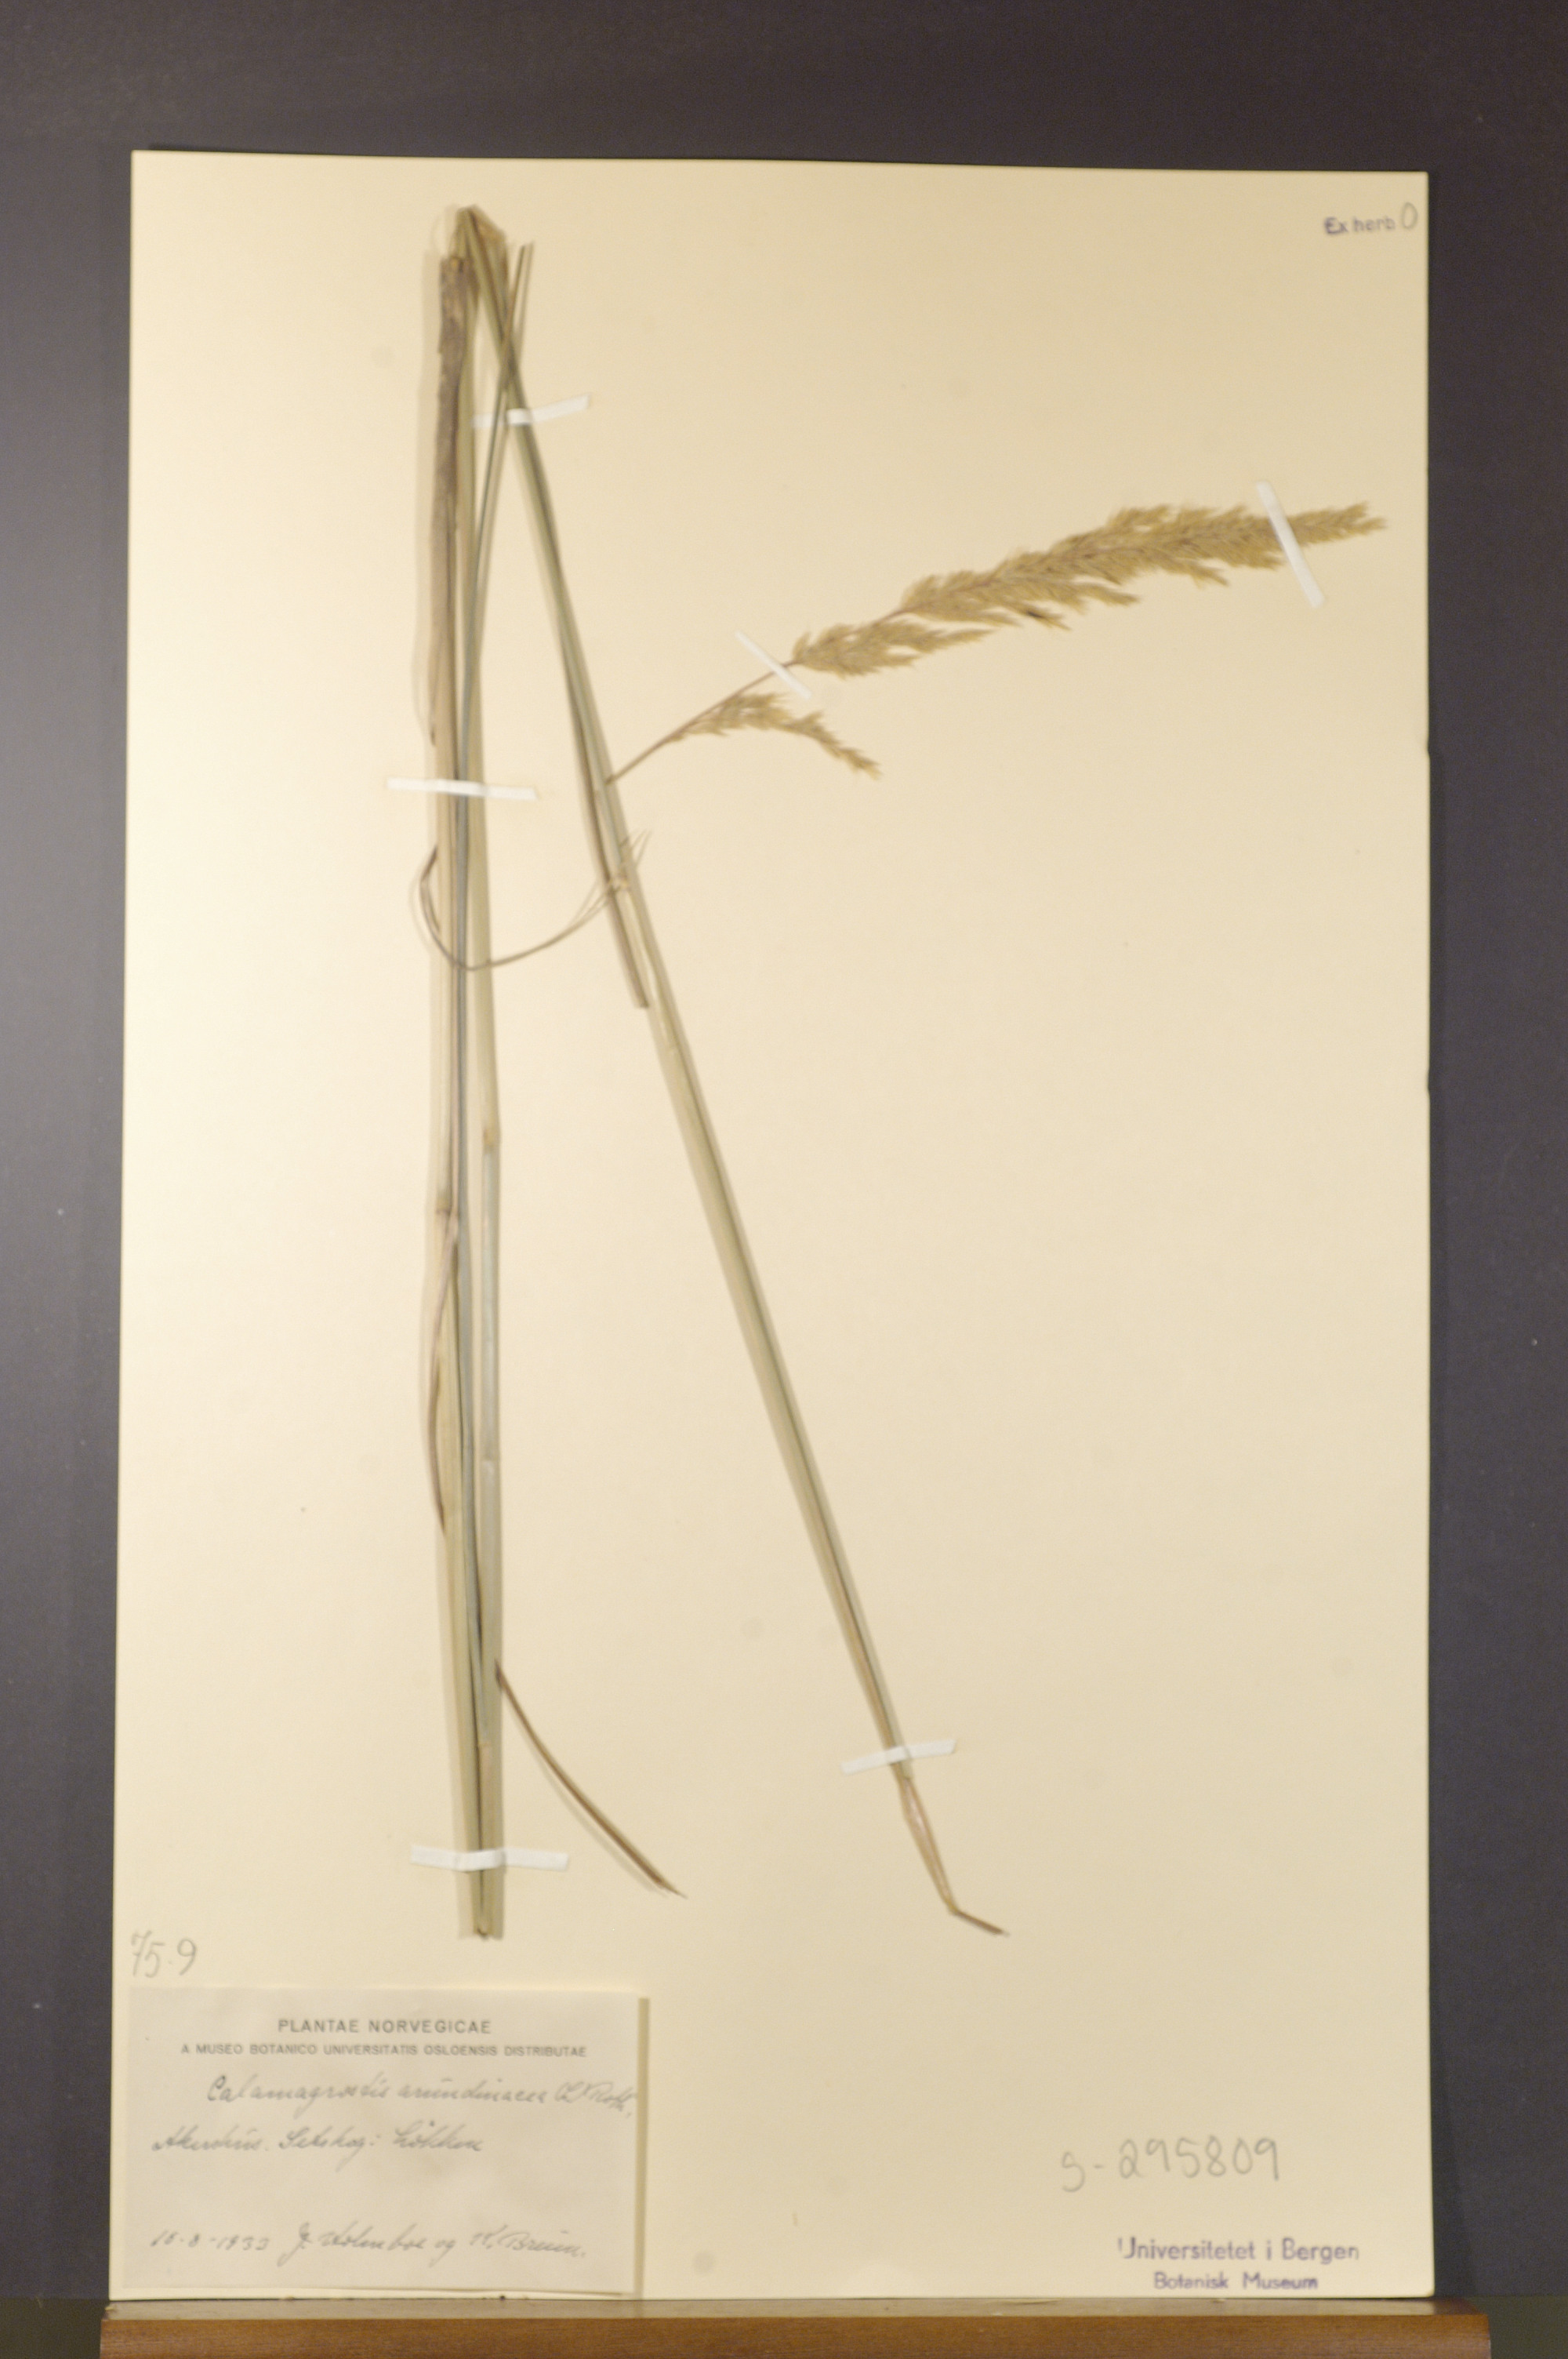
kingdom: Plantae
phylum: Tracheophyta
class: Liliopsida
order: Poales
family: Poaceae
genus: Calamagrostis
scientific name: Calamagrostis arundinacea
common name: Metskastik
